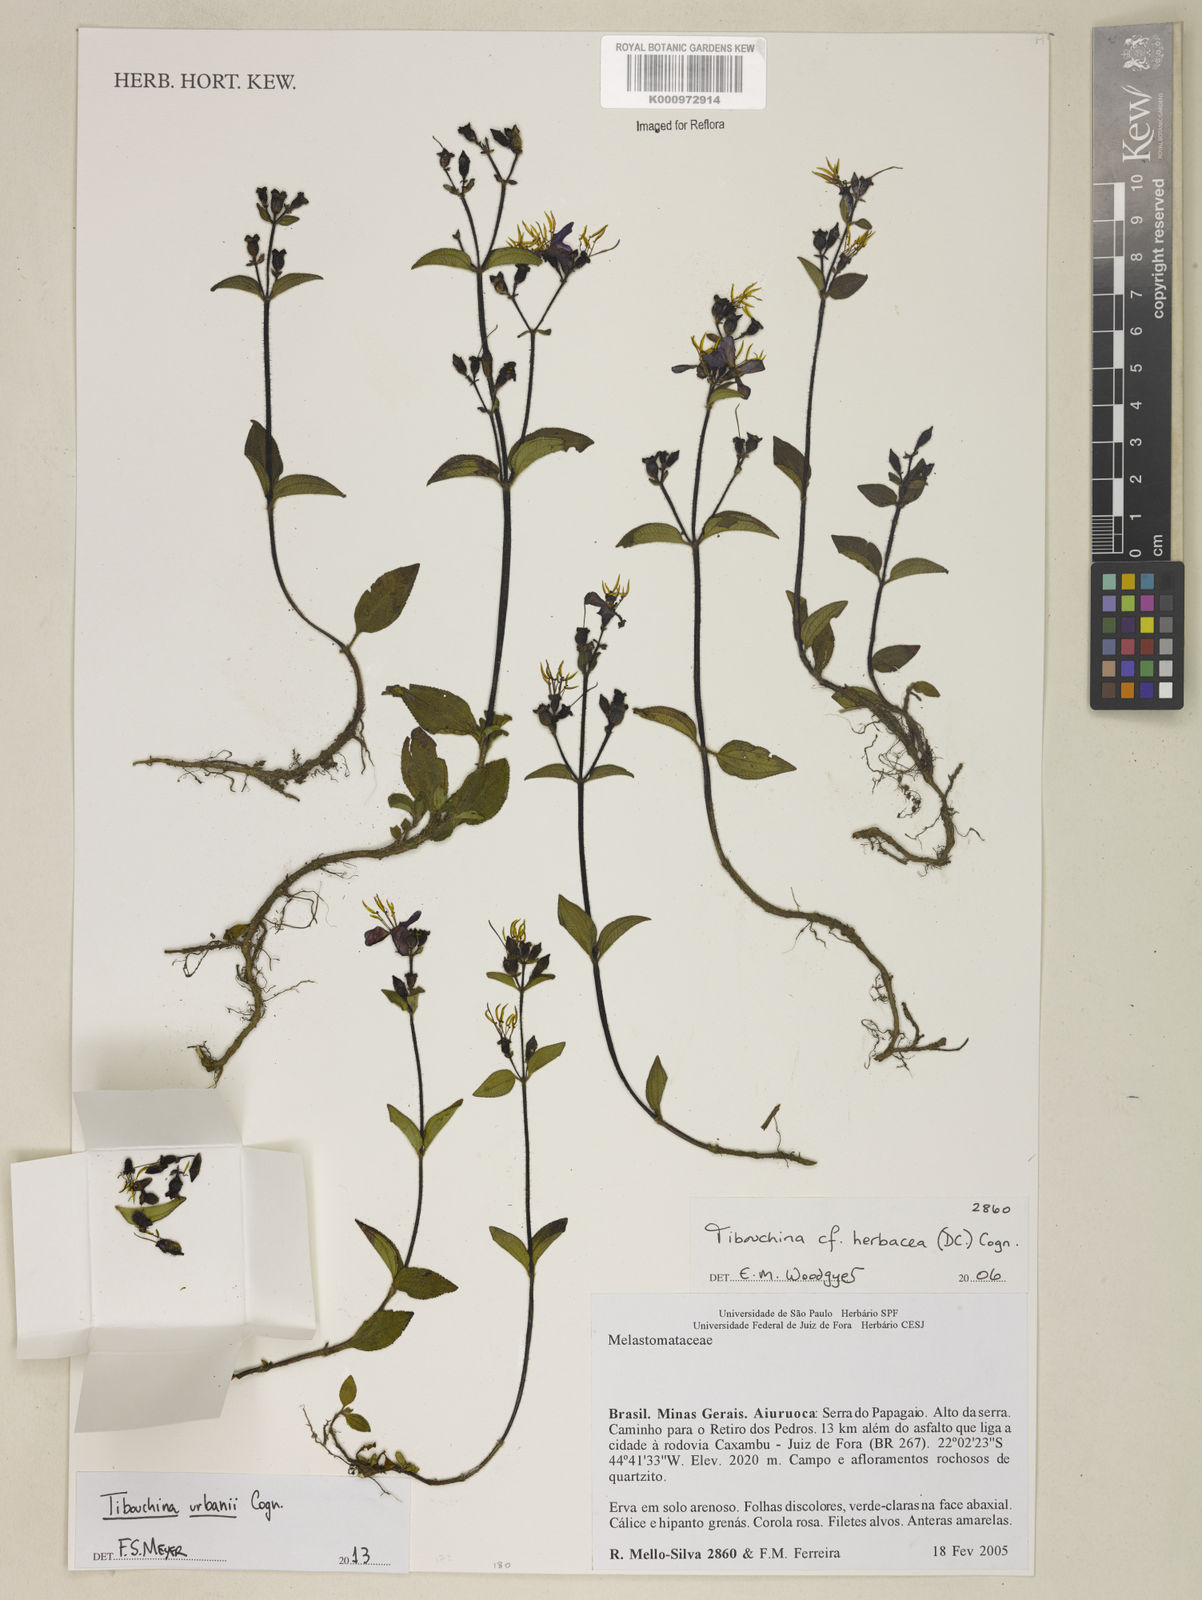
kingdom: Plantae
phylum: Tracheophyta
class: Magnoliopsida
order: Myrtales
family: Melastomataceae
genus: Chaetogastra
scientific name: Chaetogastra urbanii
